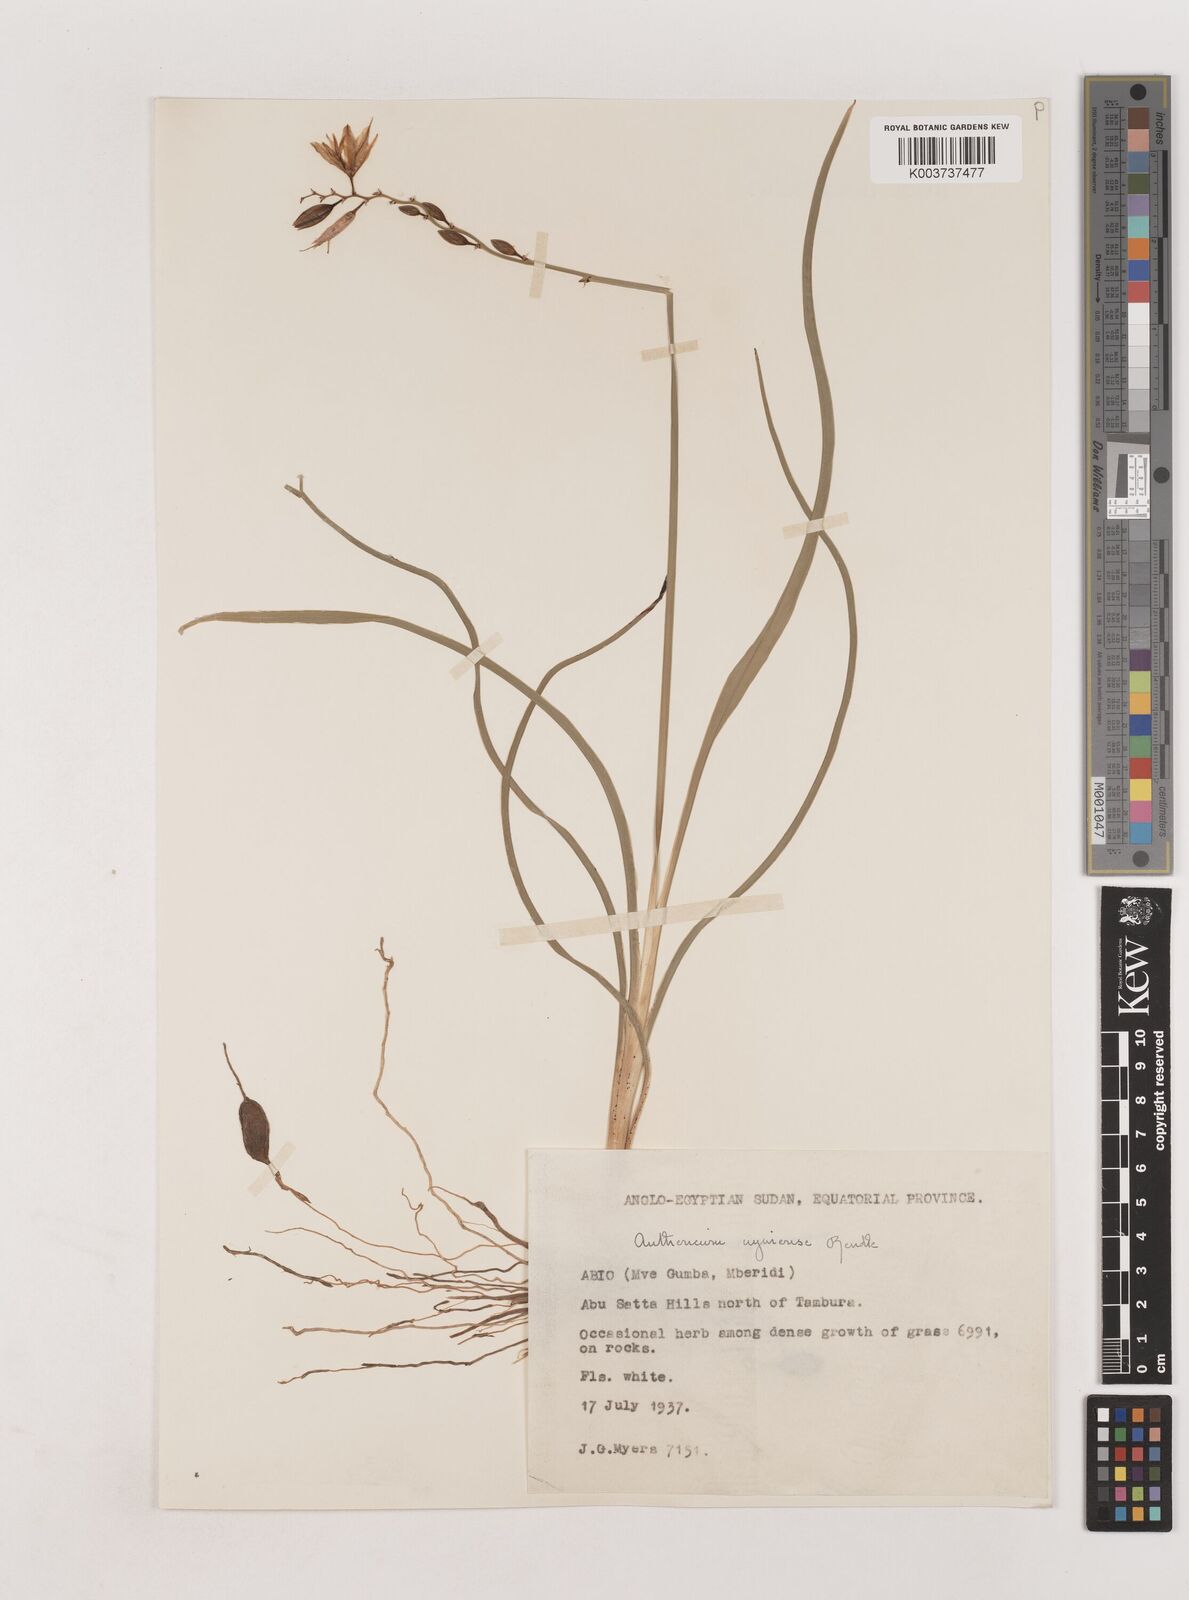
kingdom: Plantae
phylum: Tracheophyta
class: Liliopsida
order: Asparagales
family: Asparagaceae
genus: Chlorophytum
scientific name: Chlorophytum cameronii
